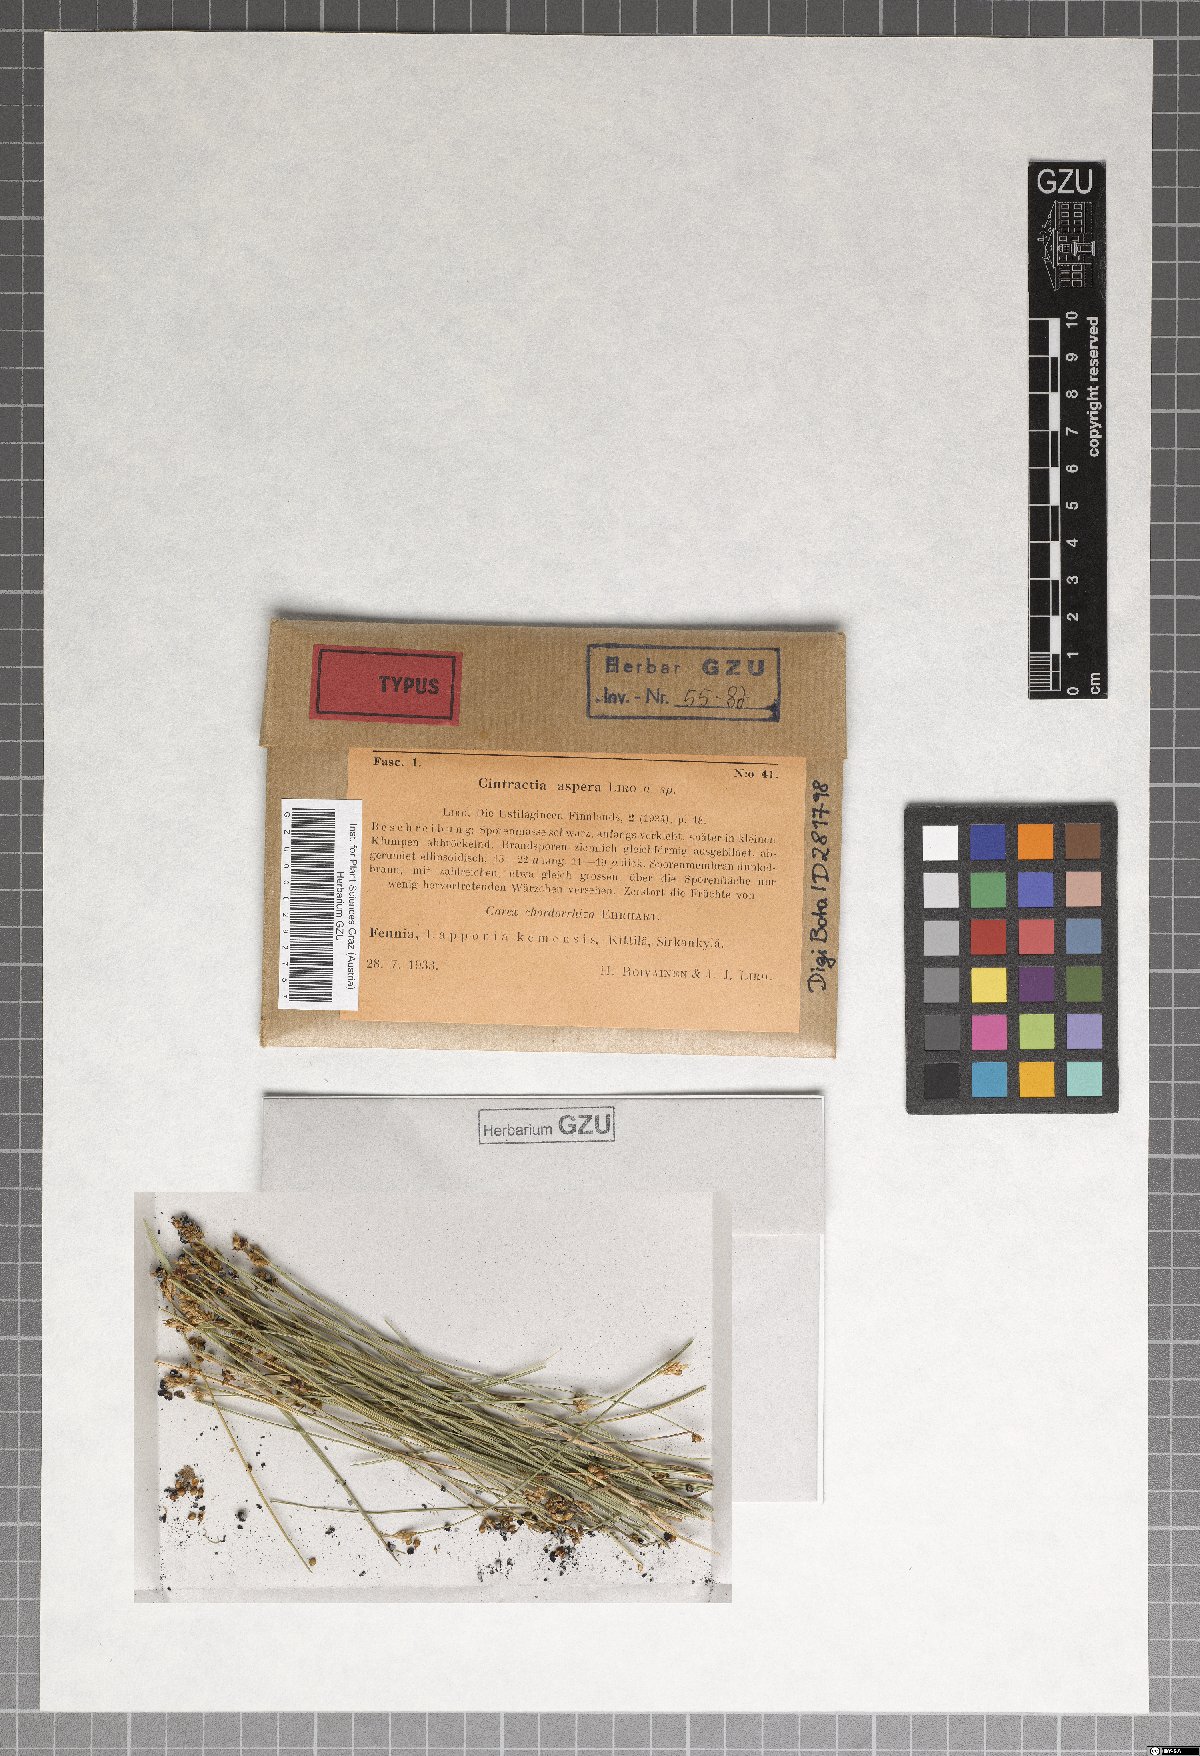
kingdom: Fungi
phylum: Basidiomycota
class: Ustilaginomycetes
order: Ustilaginales
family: Anthracoideaceae
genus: Anthracoidea
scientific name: Anthracoidea aspera
